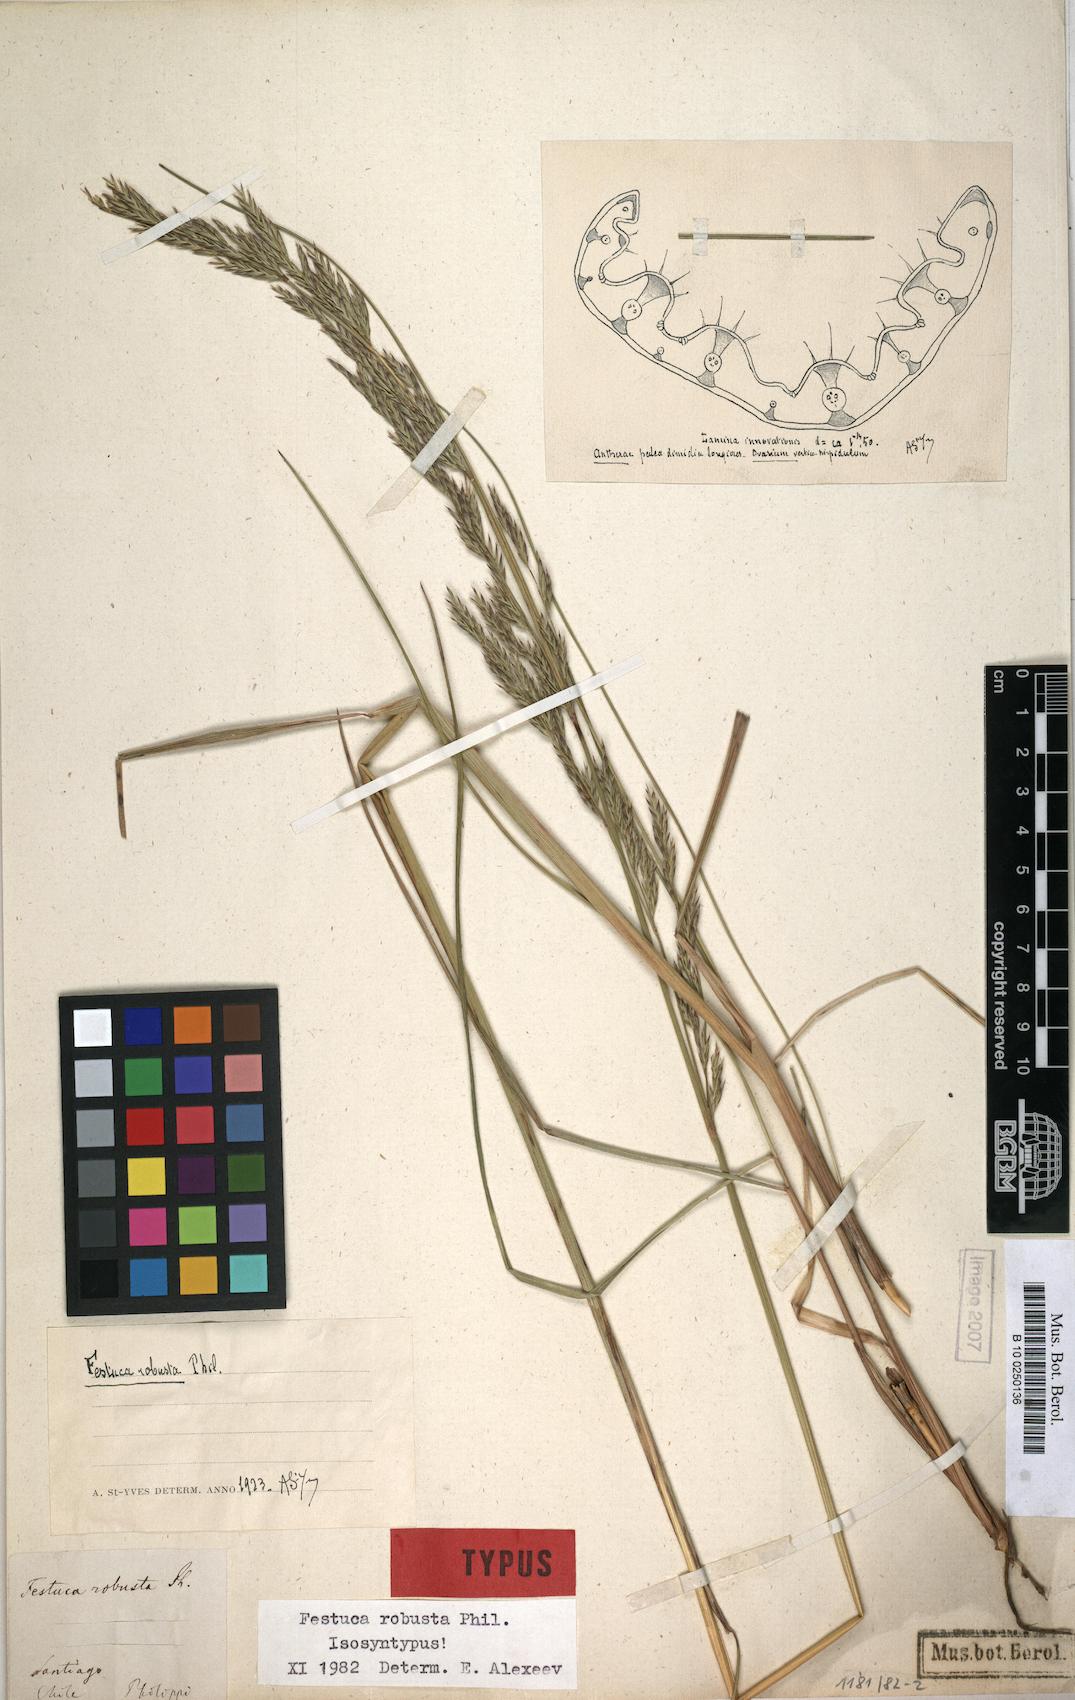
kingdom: Plantae
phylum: Tracheophyta
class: Liliopsida
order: Poales
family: Poaceae
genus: Festuca
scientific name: Festuca acanthophylla
